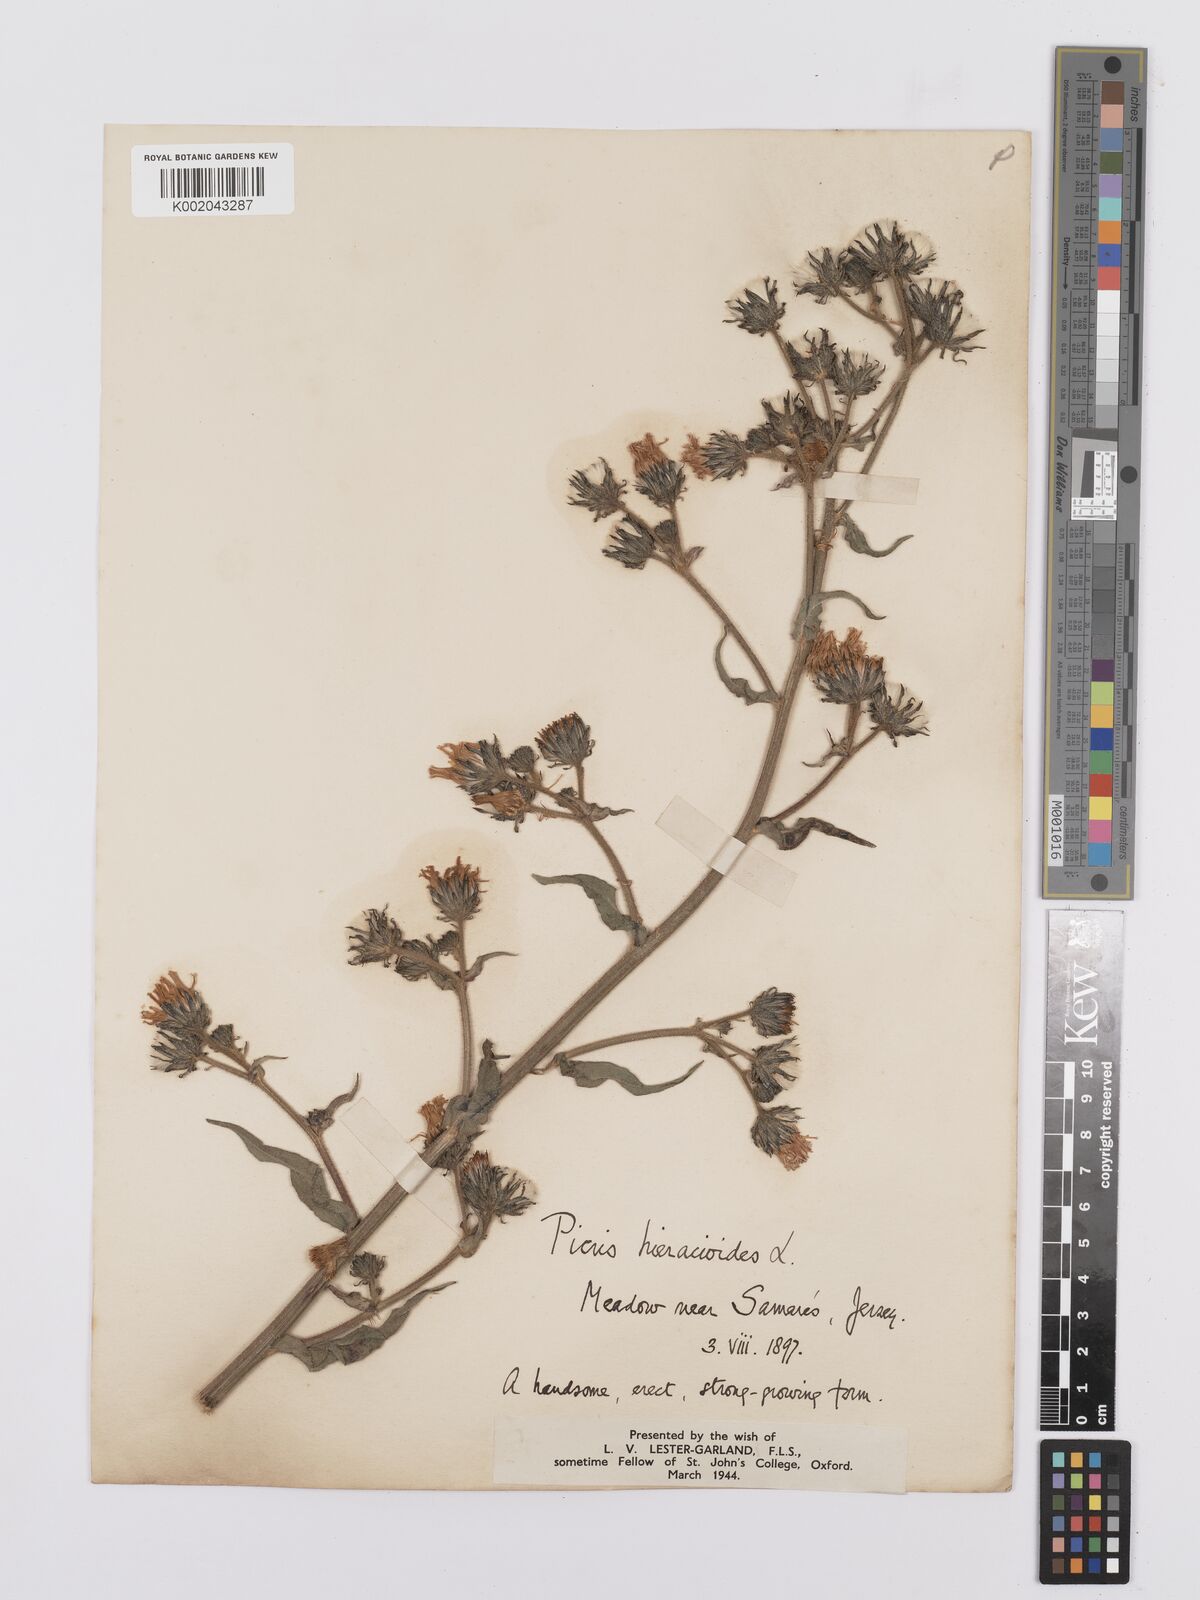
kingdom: Plantae
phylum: Tracheophyta
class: Magnoliopsida
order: Asterales
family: Asteraceae
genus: Picris
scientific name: Picris hieracioides
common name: Hawkweed oxtongue
